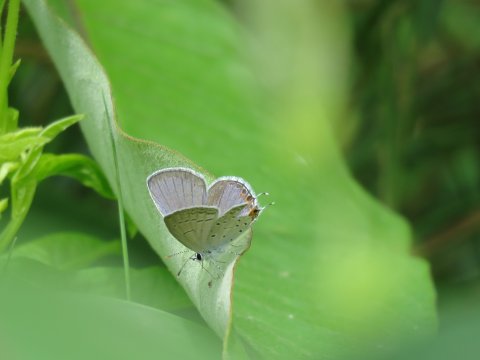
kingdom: Animalia
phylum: Arthropoda
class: Insecta
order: Lepidoptera
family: Lycaenidae
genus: Elkalyce
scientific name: Elkalyce comyntas
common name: Eastern Tailed-Blue
